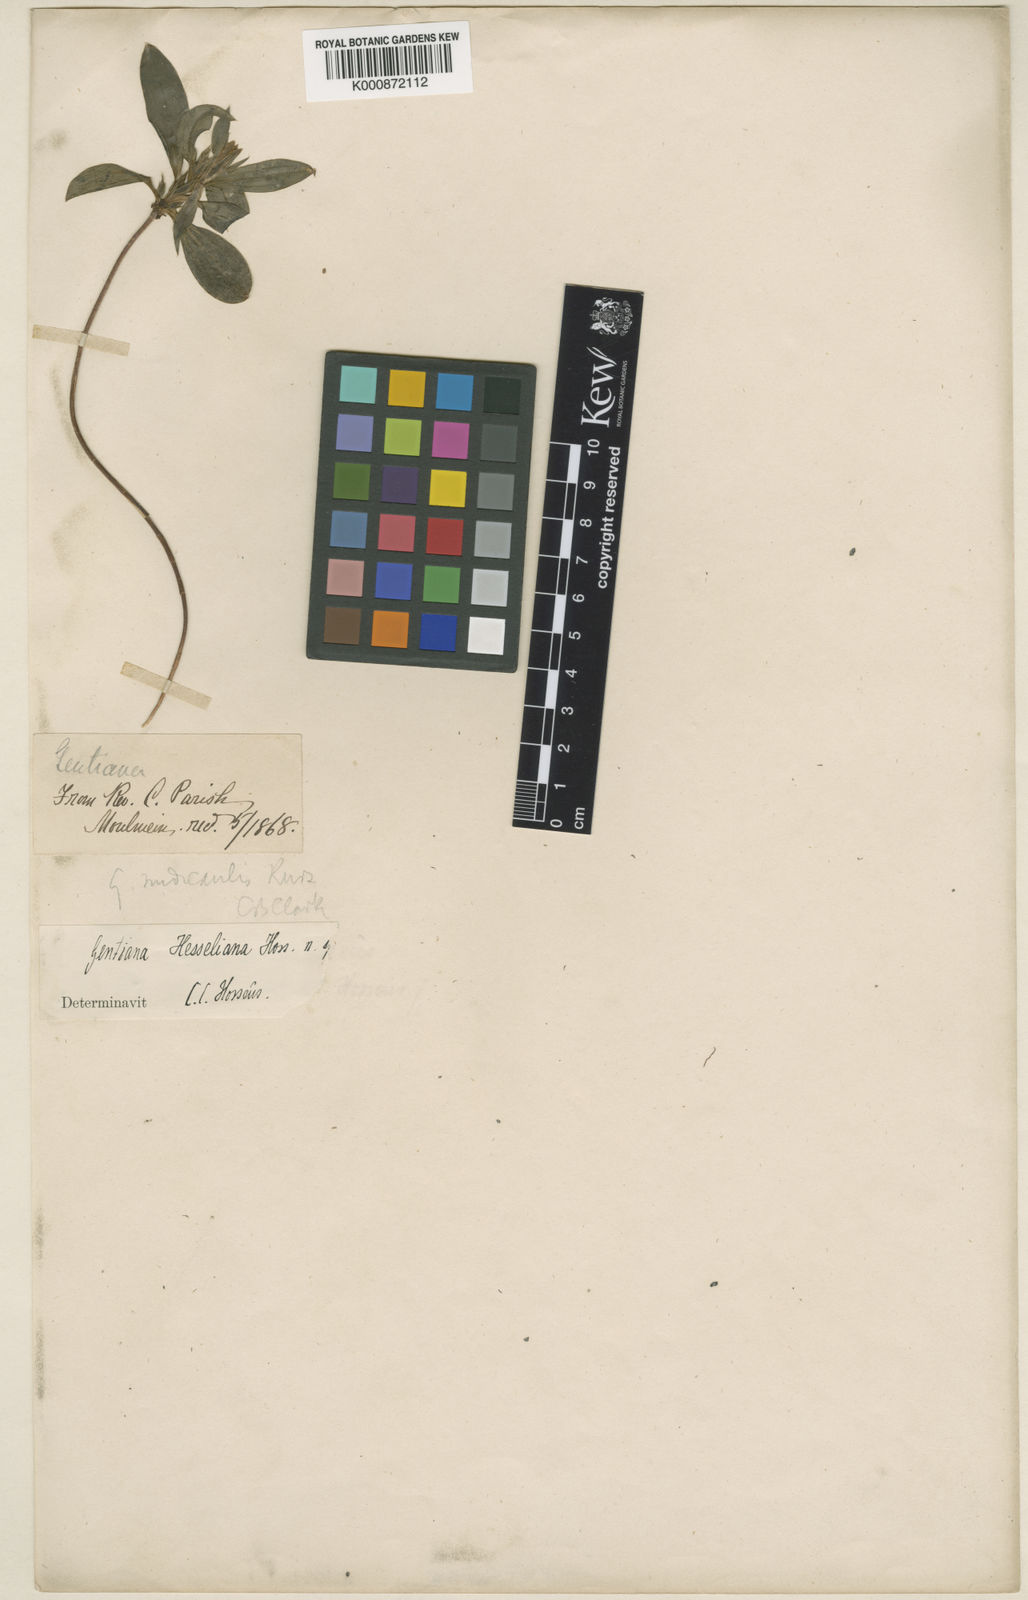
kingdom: Plantae
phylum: Tracheophyta
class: Magnoliopsida
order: Gentianales
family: Gentianaceae
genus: Gentiana
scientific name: Gentiana hesseliana
